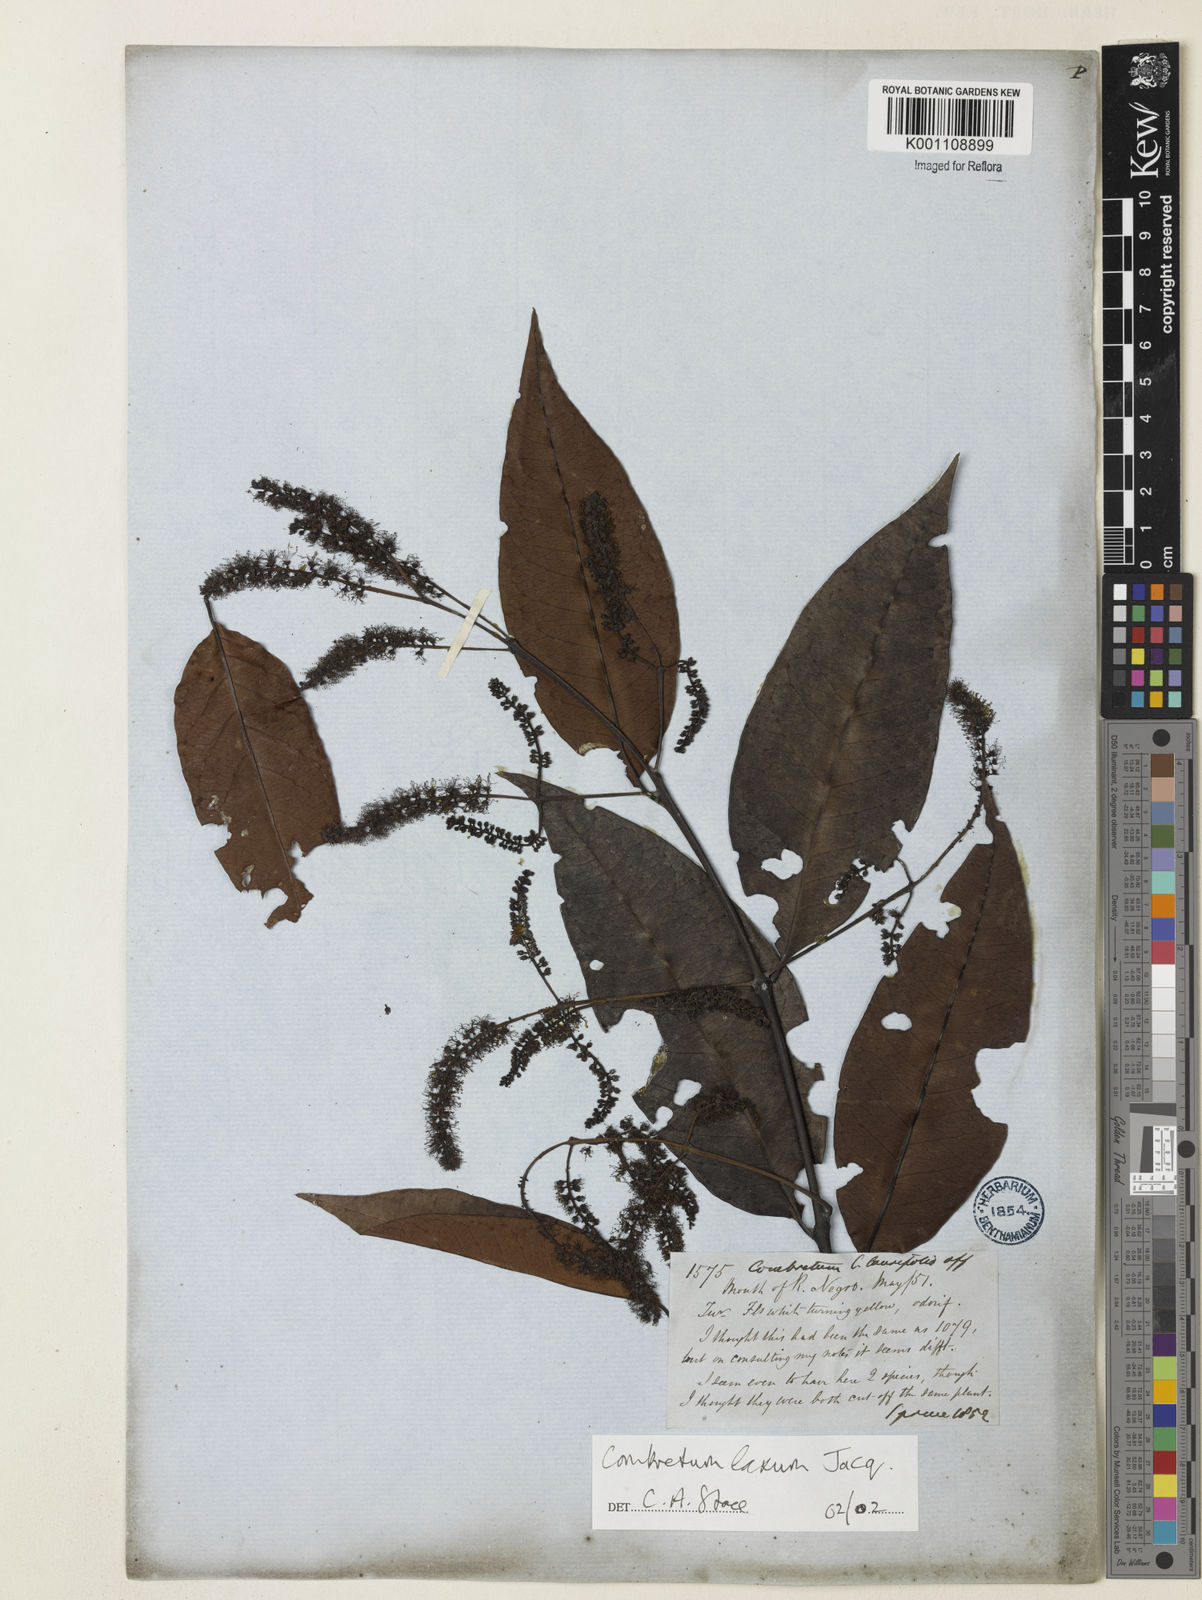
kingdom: Plantae
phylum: Tracheophyta
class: Magnoliopsida
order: Myrtales
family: Combretaceae
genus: Combretum
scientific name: Combretum laxum
